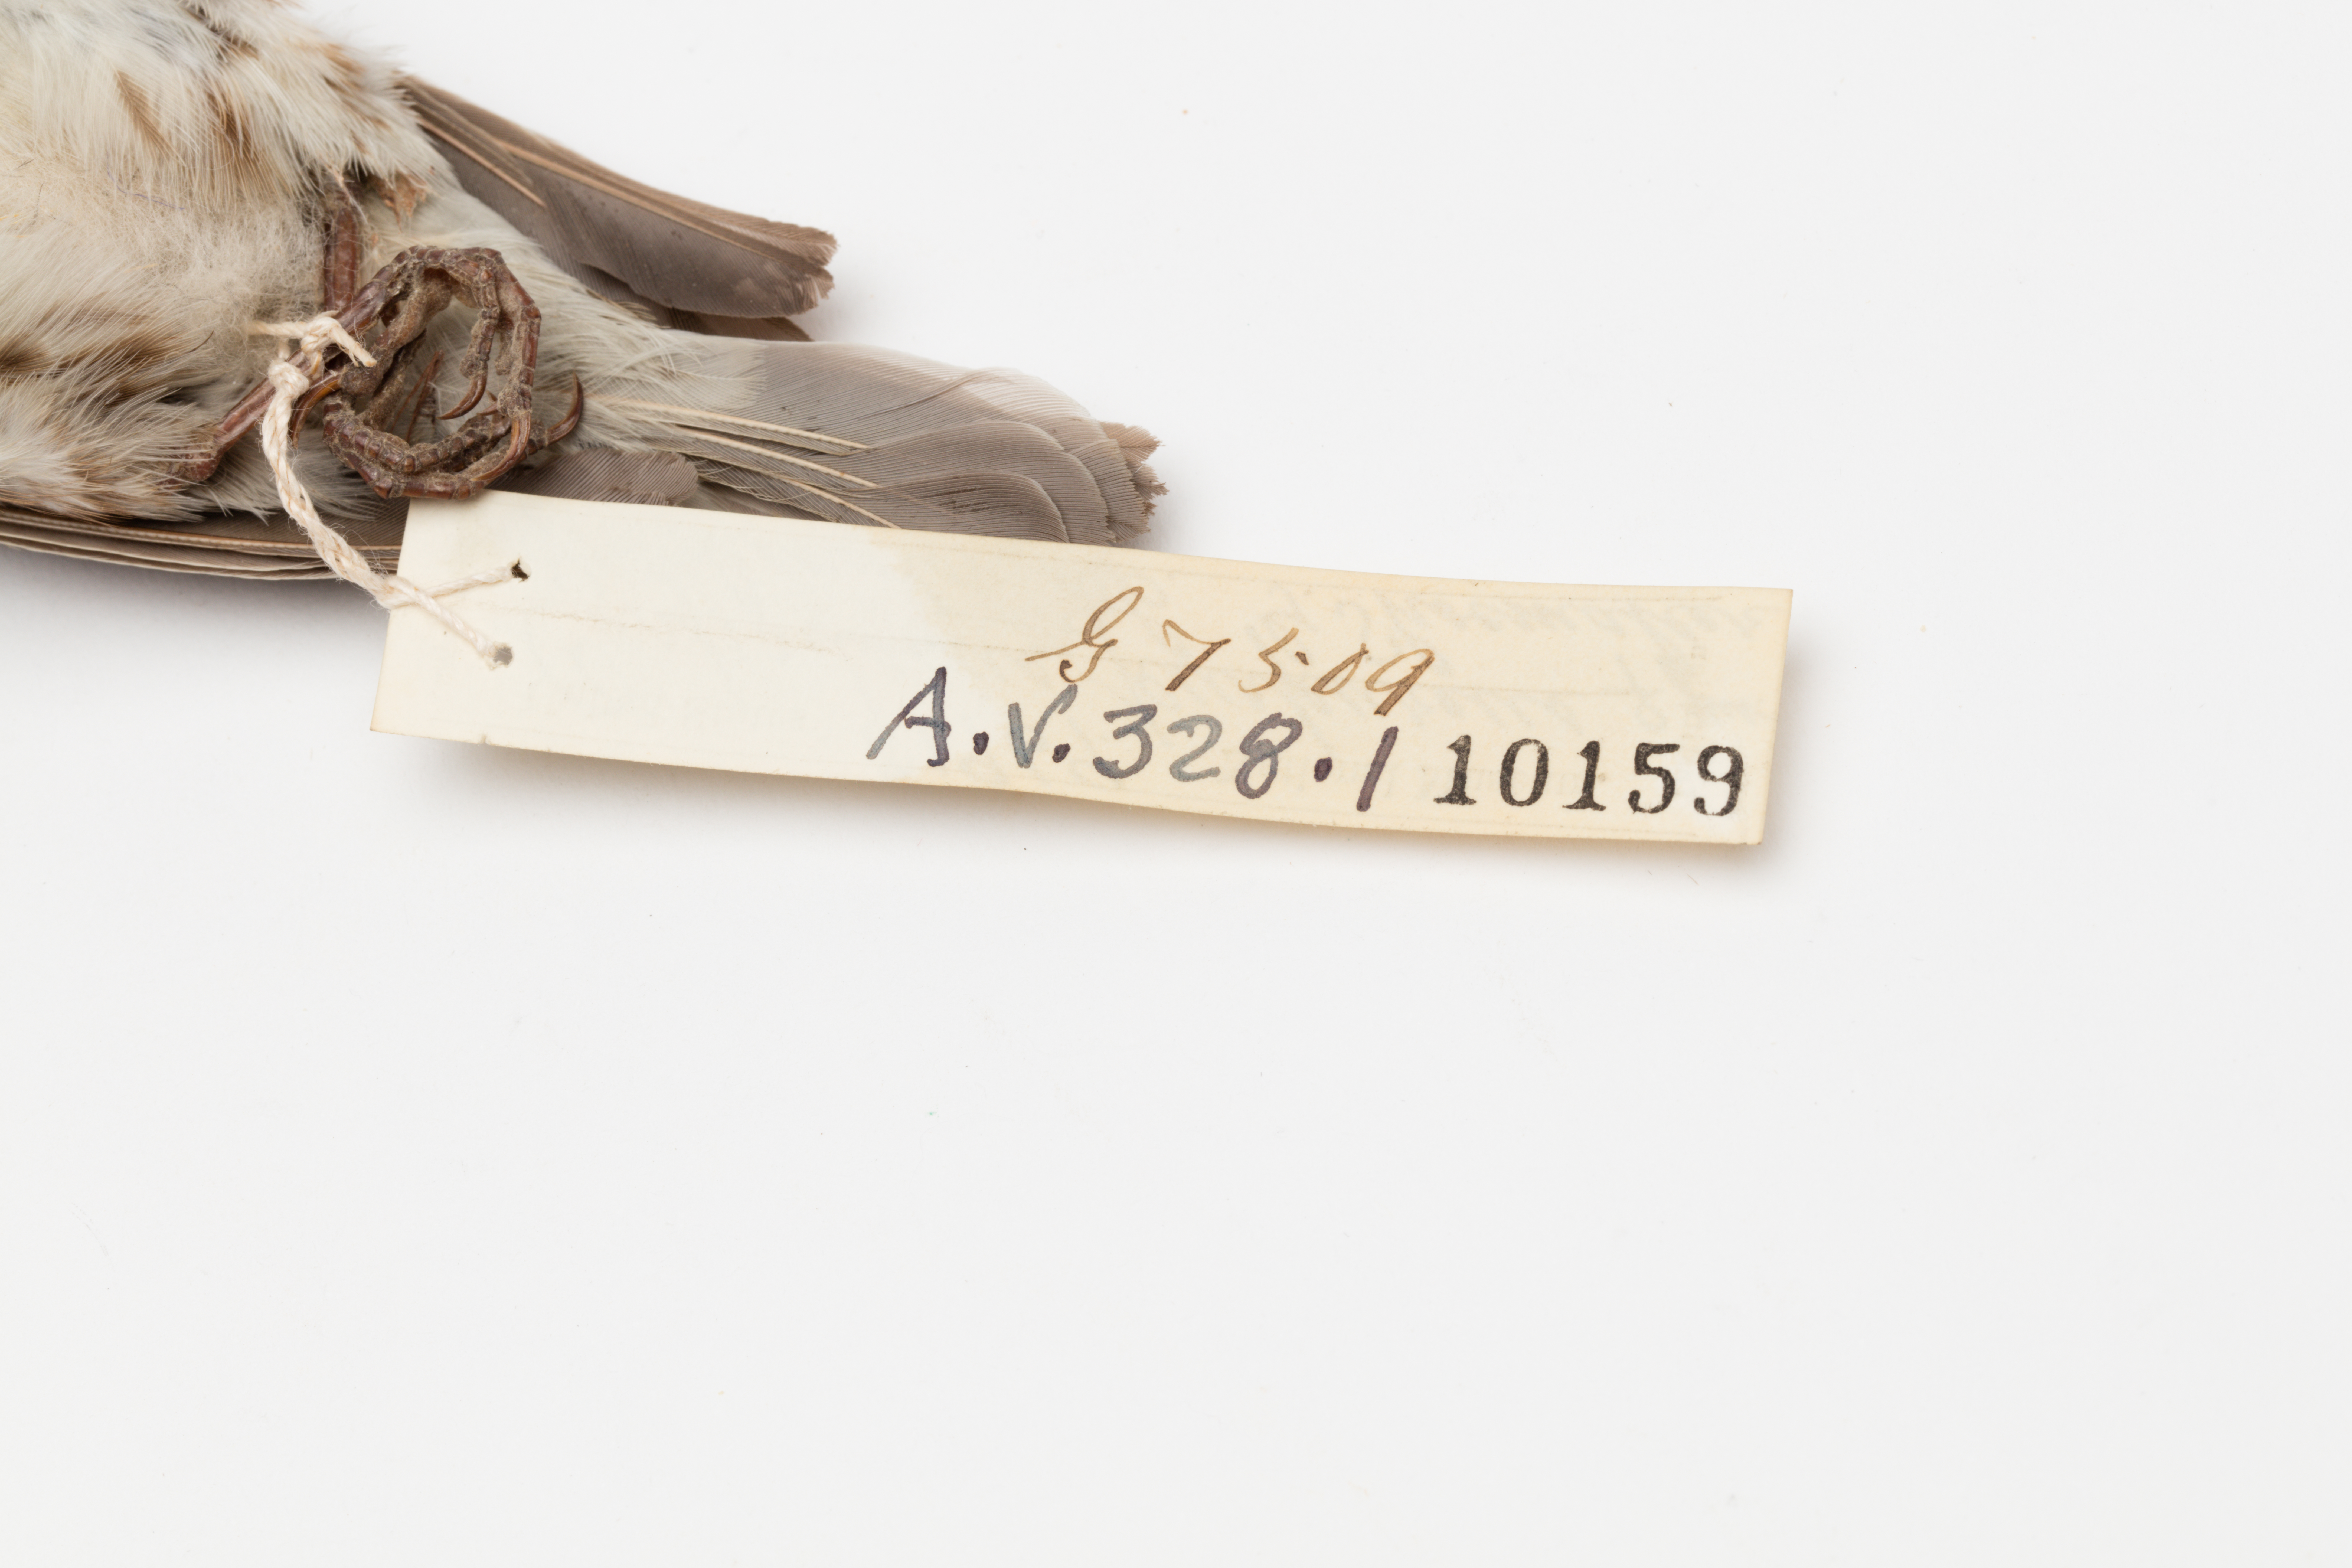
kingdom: Animalia
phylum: Chordata
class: Aves
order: Passeriformes
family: Fringillidae
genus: Haemorhous
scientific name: Haemorhous purpureus
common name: Purple finch
